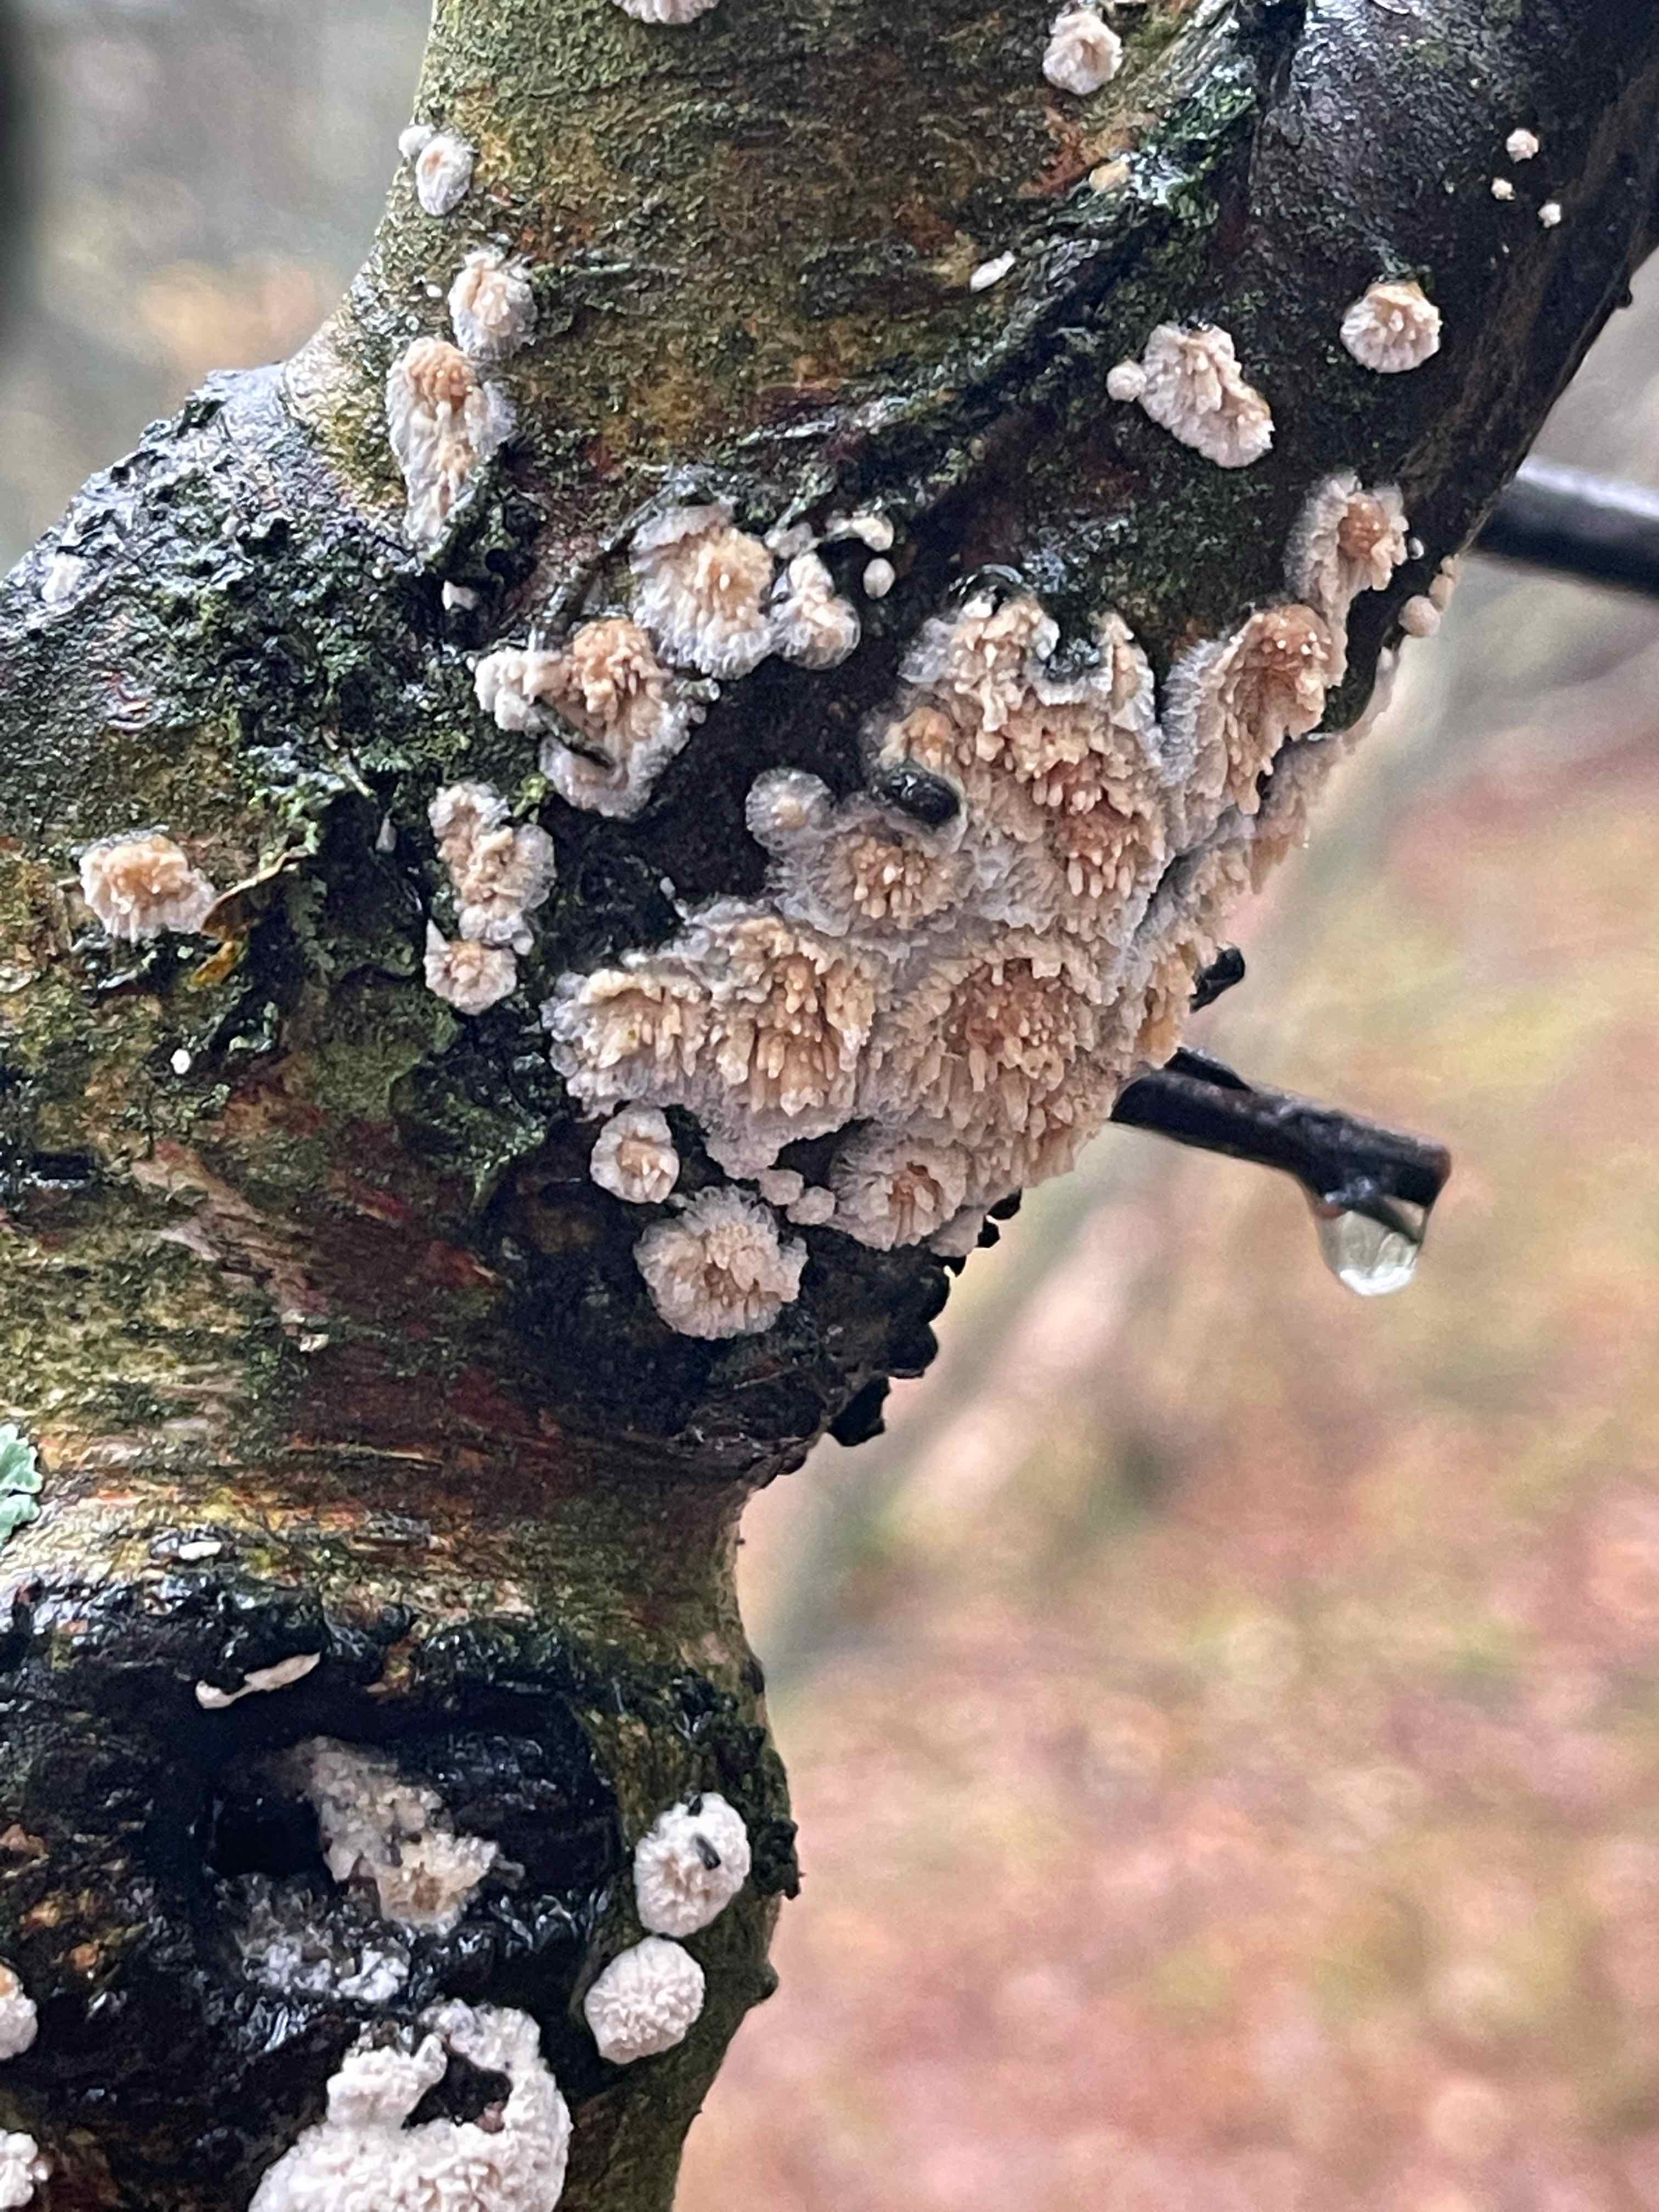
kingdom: Fungi
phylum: Basidiomycota
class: Agaricomycetes
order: Hymenochaetales
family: Schizoporaceae
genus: Xylodon
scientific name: Xylodon radula
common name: grovtandet kalkskind
